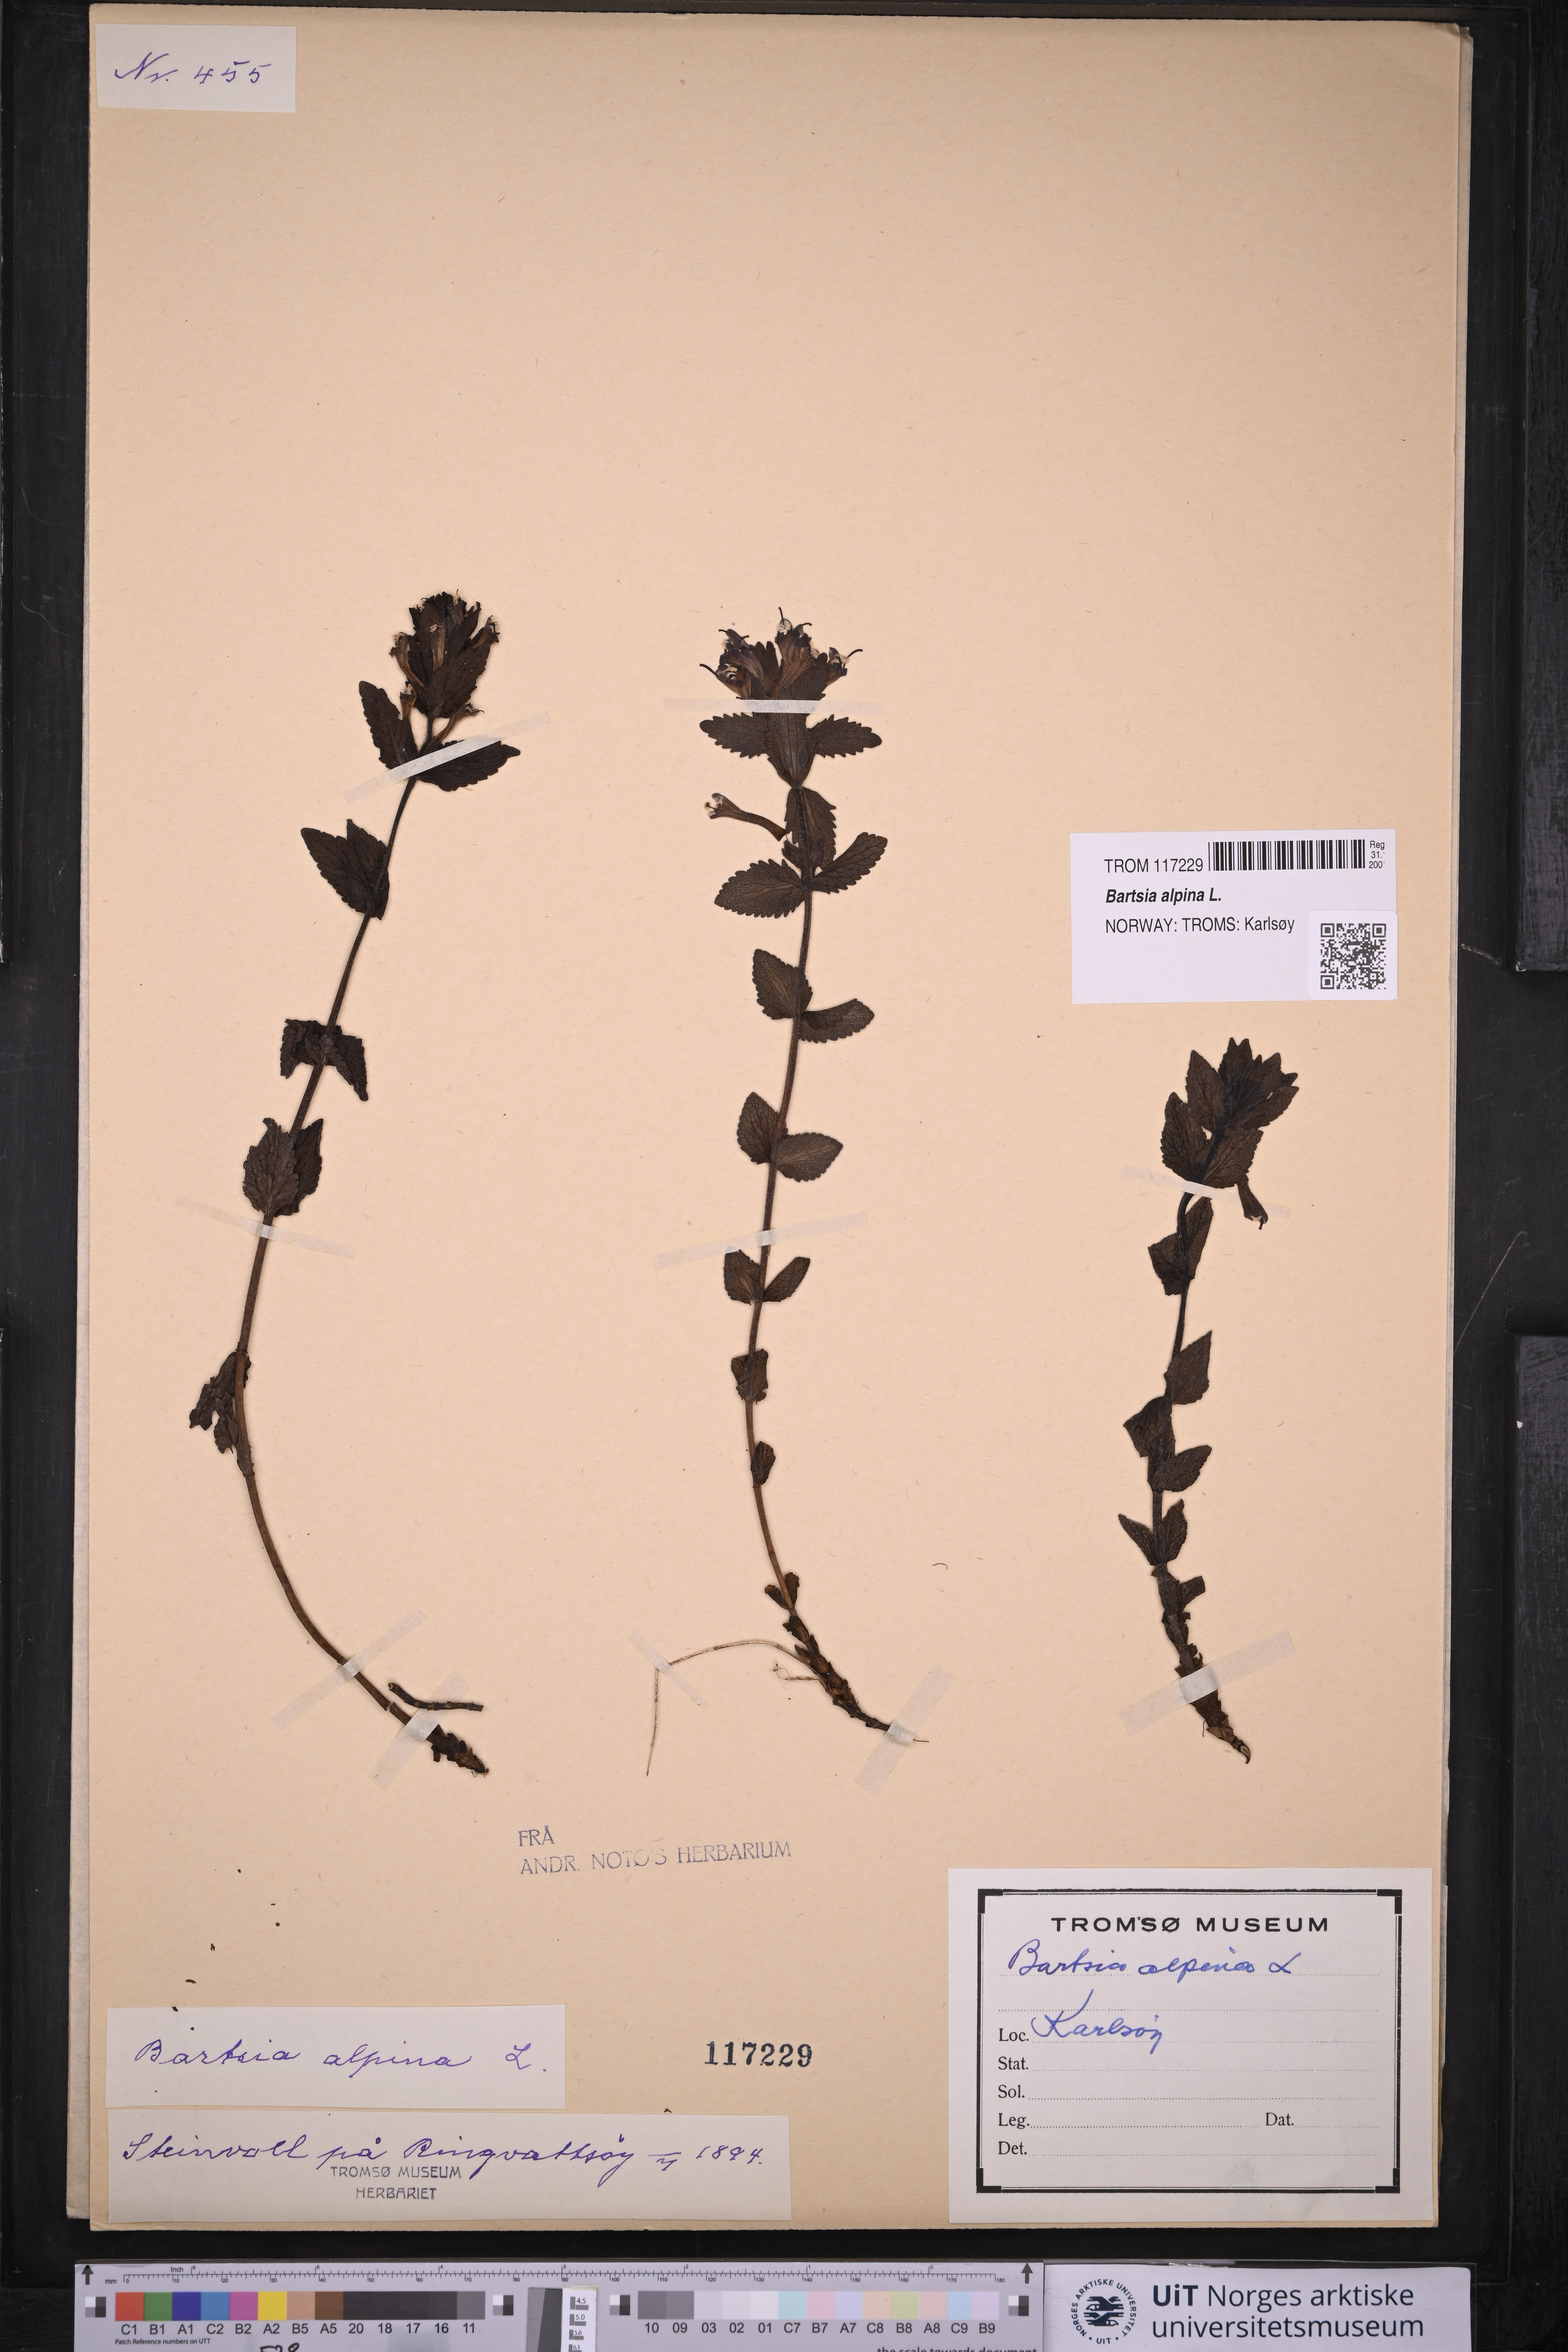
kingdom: Plantae
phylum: Tracheophyta
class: Magnoliopsida
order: Lamiales
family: Orobanchaceae
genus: Bartsia
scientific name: Bartsia alpina
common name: Alpine bartsia
